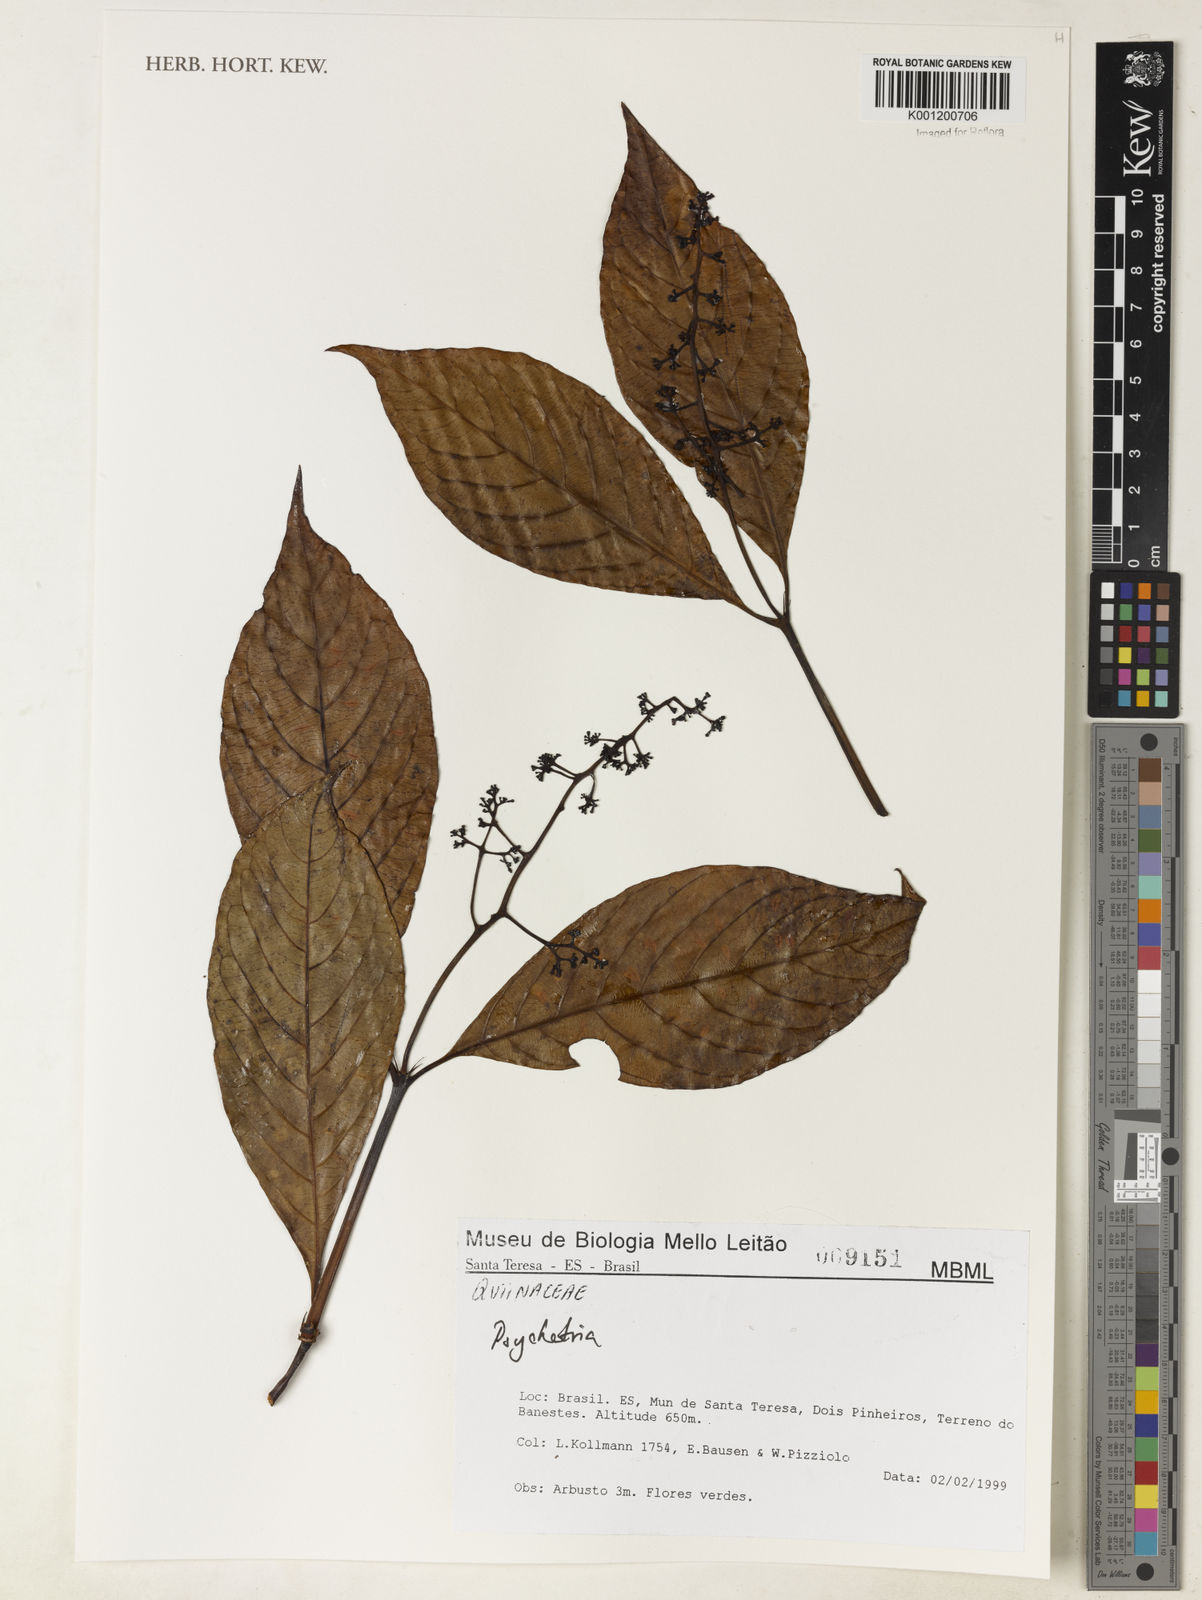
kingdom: Plantae
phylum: Tracheophyta
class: Magnoliopsida
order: Gentianales
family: Rubiaceae
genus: Psychotria
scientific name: Psychotria
